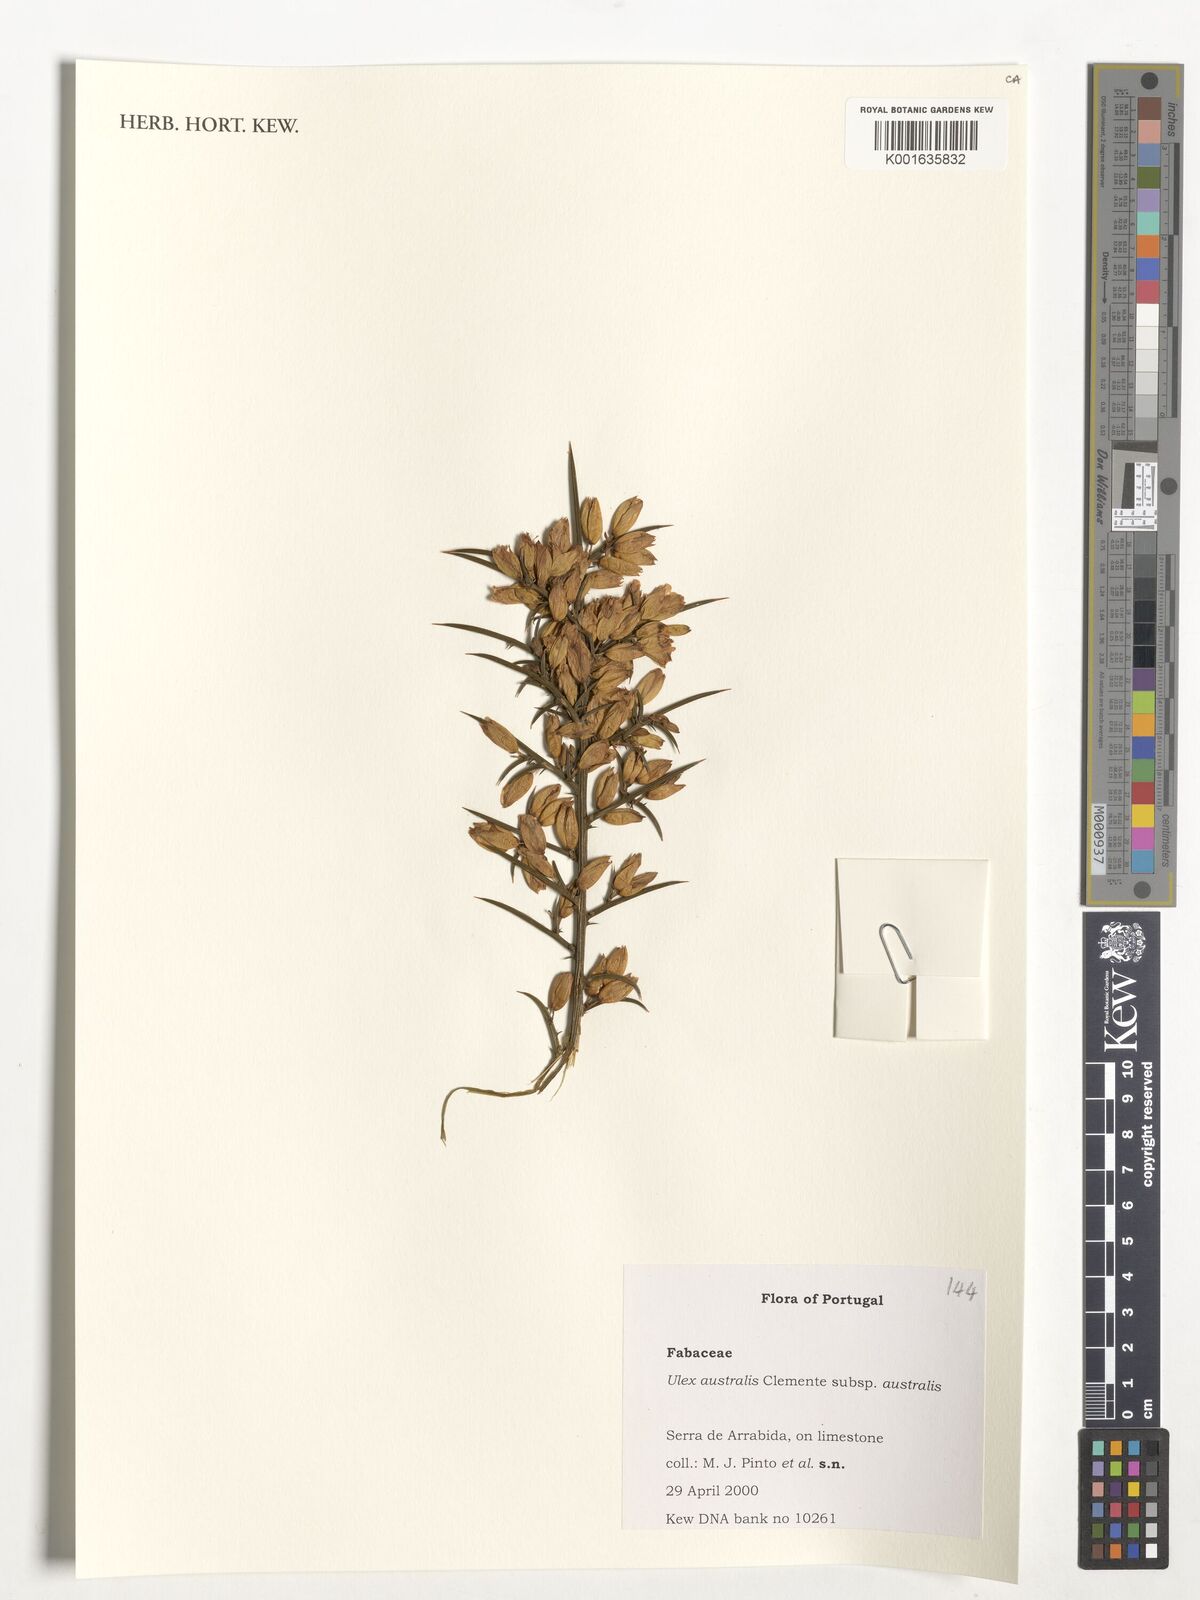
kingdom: Plantae
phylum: Tracheophyta
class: Magnoliopsida
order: Fabales
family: Fabaceae
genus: Ulex
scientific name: Ulex australis
